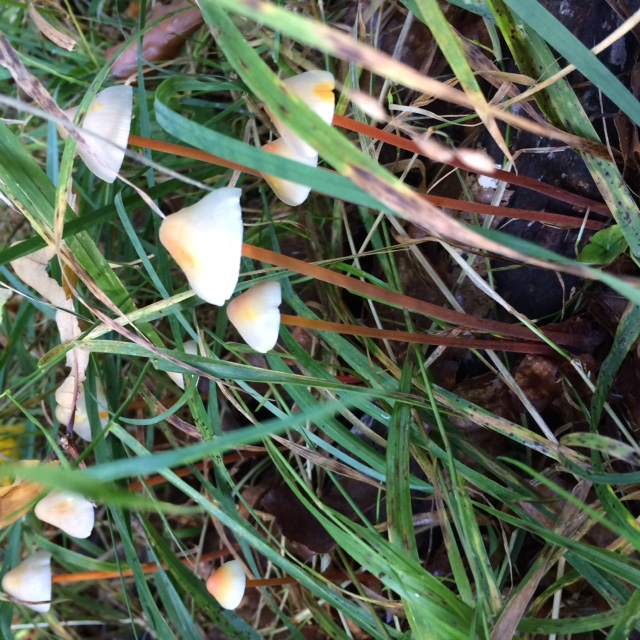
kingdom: Fungi
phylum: Basidiomycota
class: Agaricomycetes
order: Agaricales
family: Mycenaceae
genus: Mycena
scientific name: Mycena crocata
